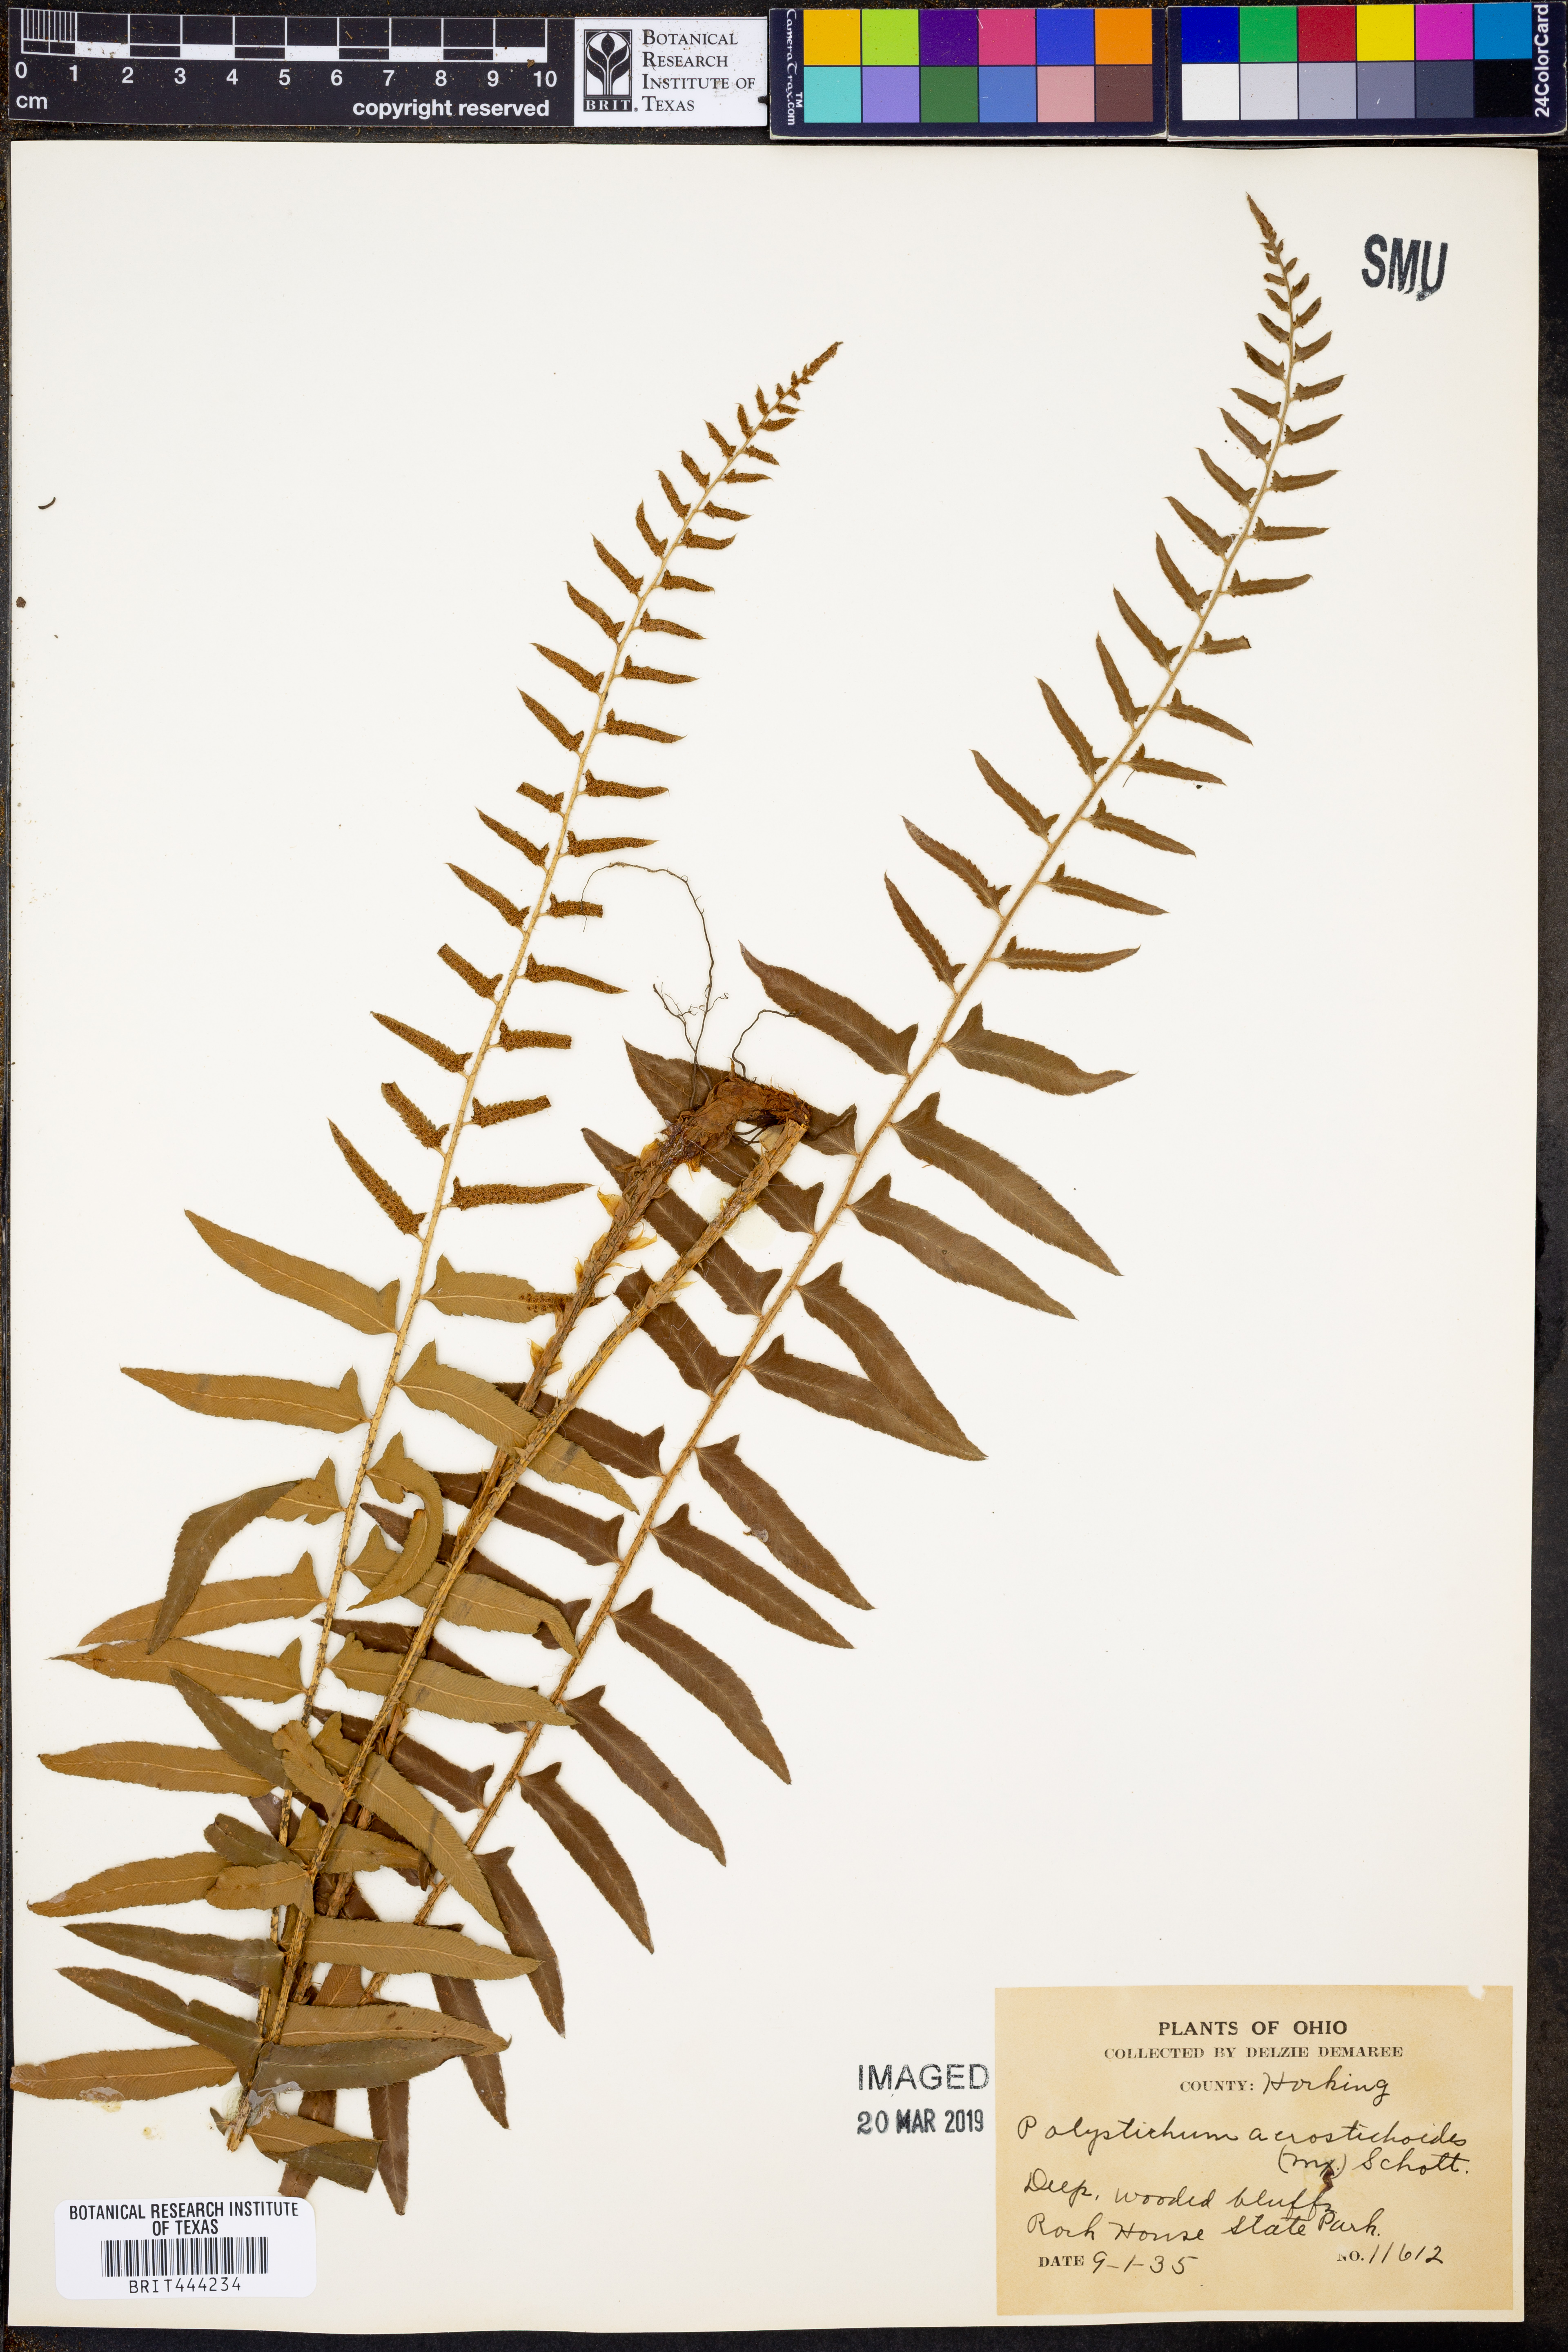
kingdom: Plantae
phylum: Tracheophyta
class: Polypodiopsida
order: Polypodiales
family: Dryopteridaceae
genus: Polystichum
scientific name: Polystichum acrostichoides
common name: Christmas fern
